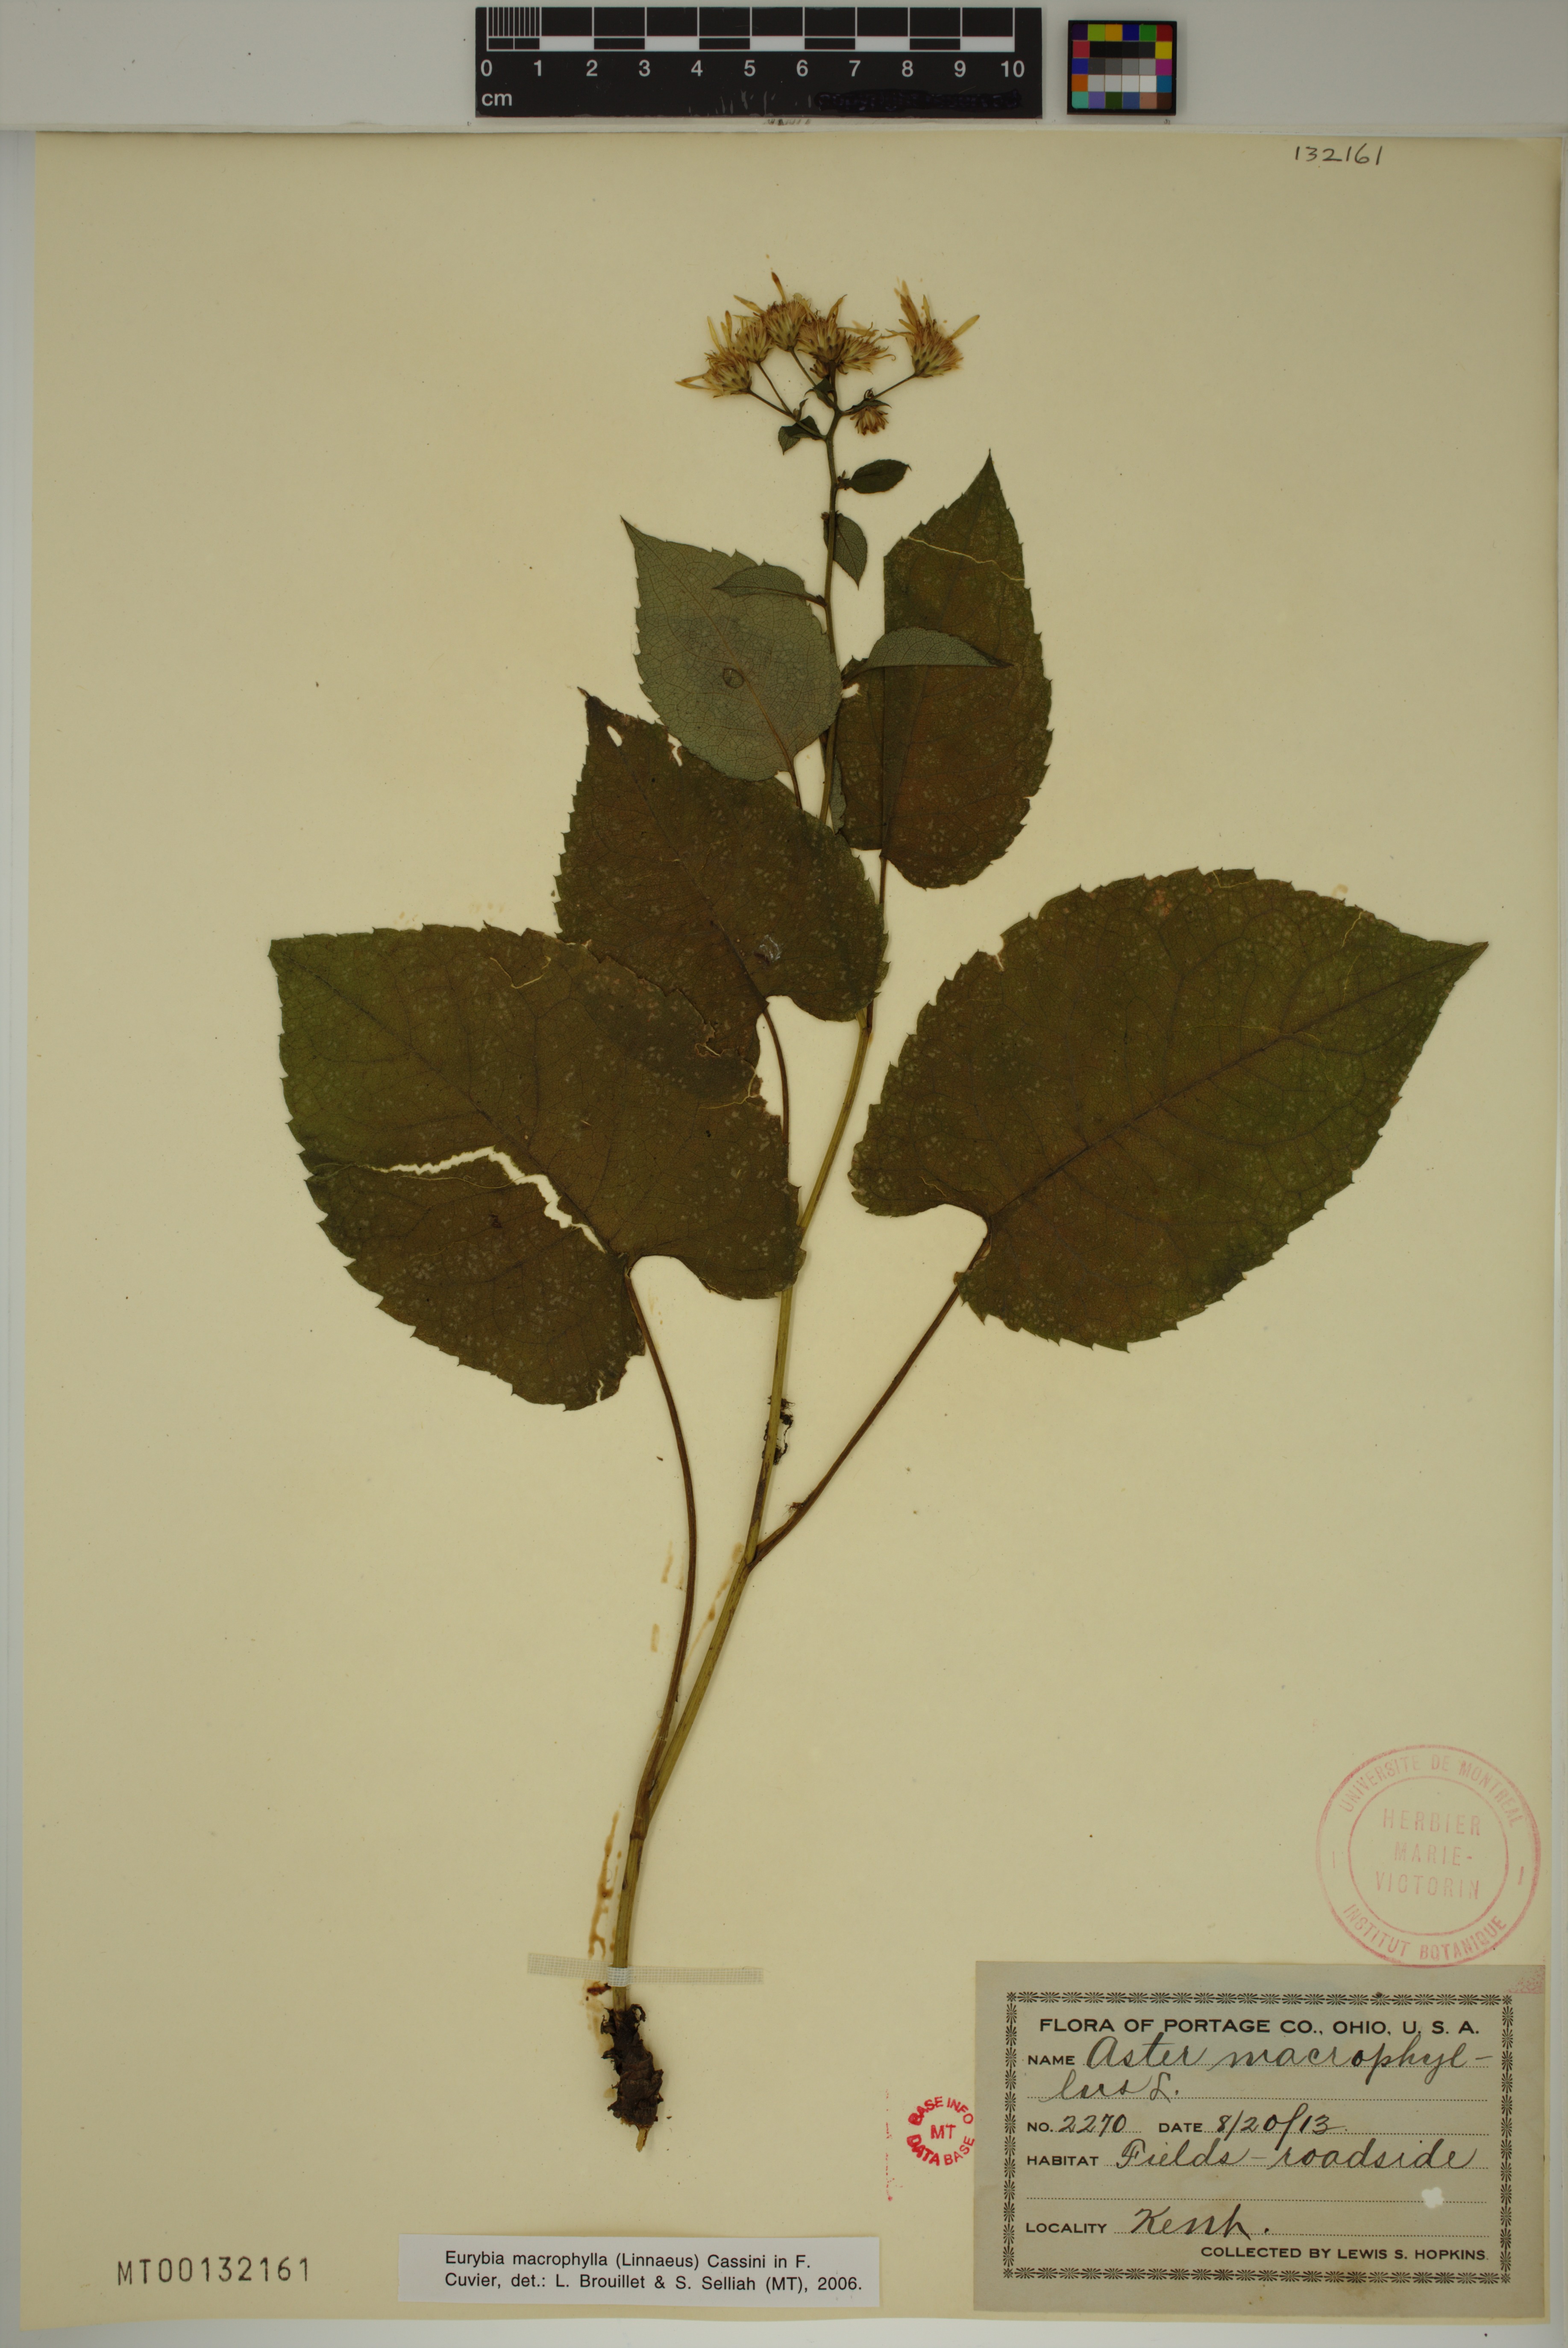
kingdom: Plantae
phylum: Tracheophyta
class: Magnoliopsida
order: Asterales
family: Asteraceae
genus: Eurybia
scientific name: Eurybia macrophylla
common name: Big-leaved aster
